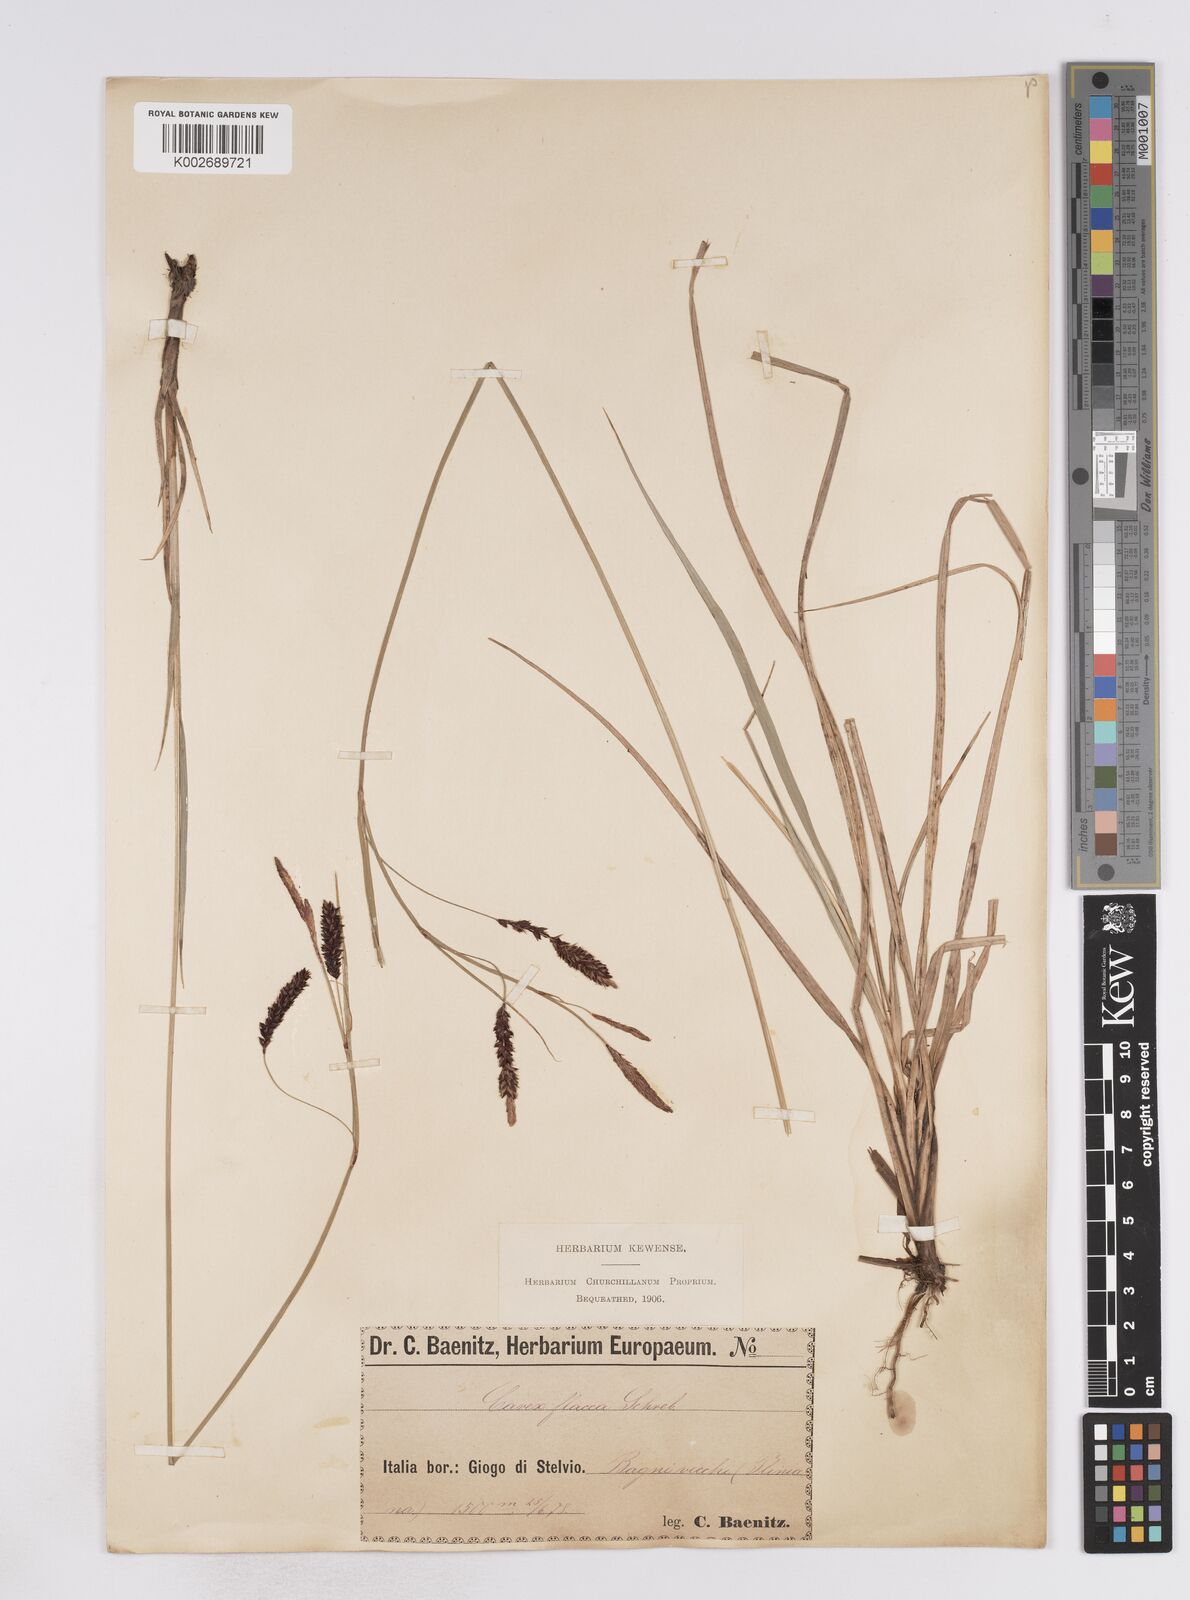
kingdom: Plantae
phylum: Tracheophyta
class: Liliopsida
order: Poales
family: Cyperaceae
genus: Carex
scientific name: Carex flacca
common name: Glaucous sedge
